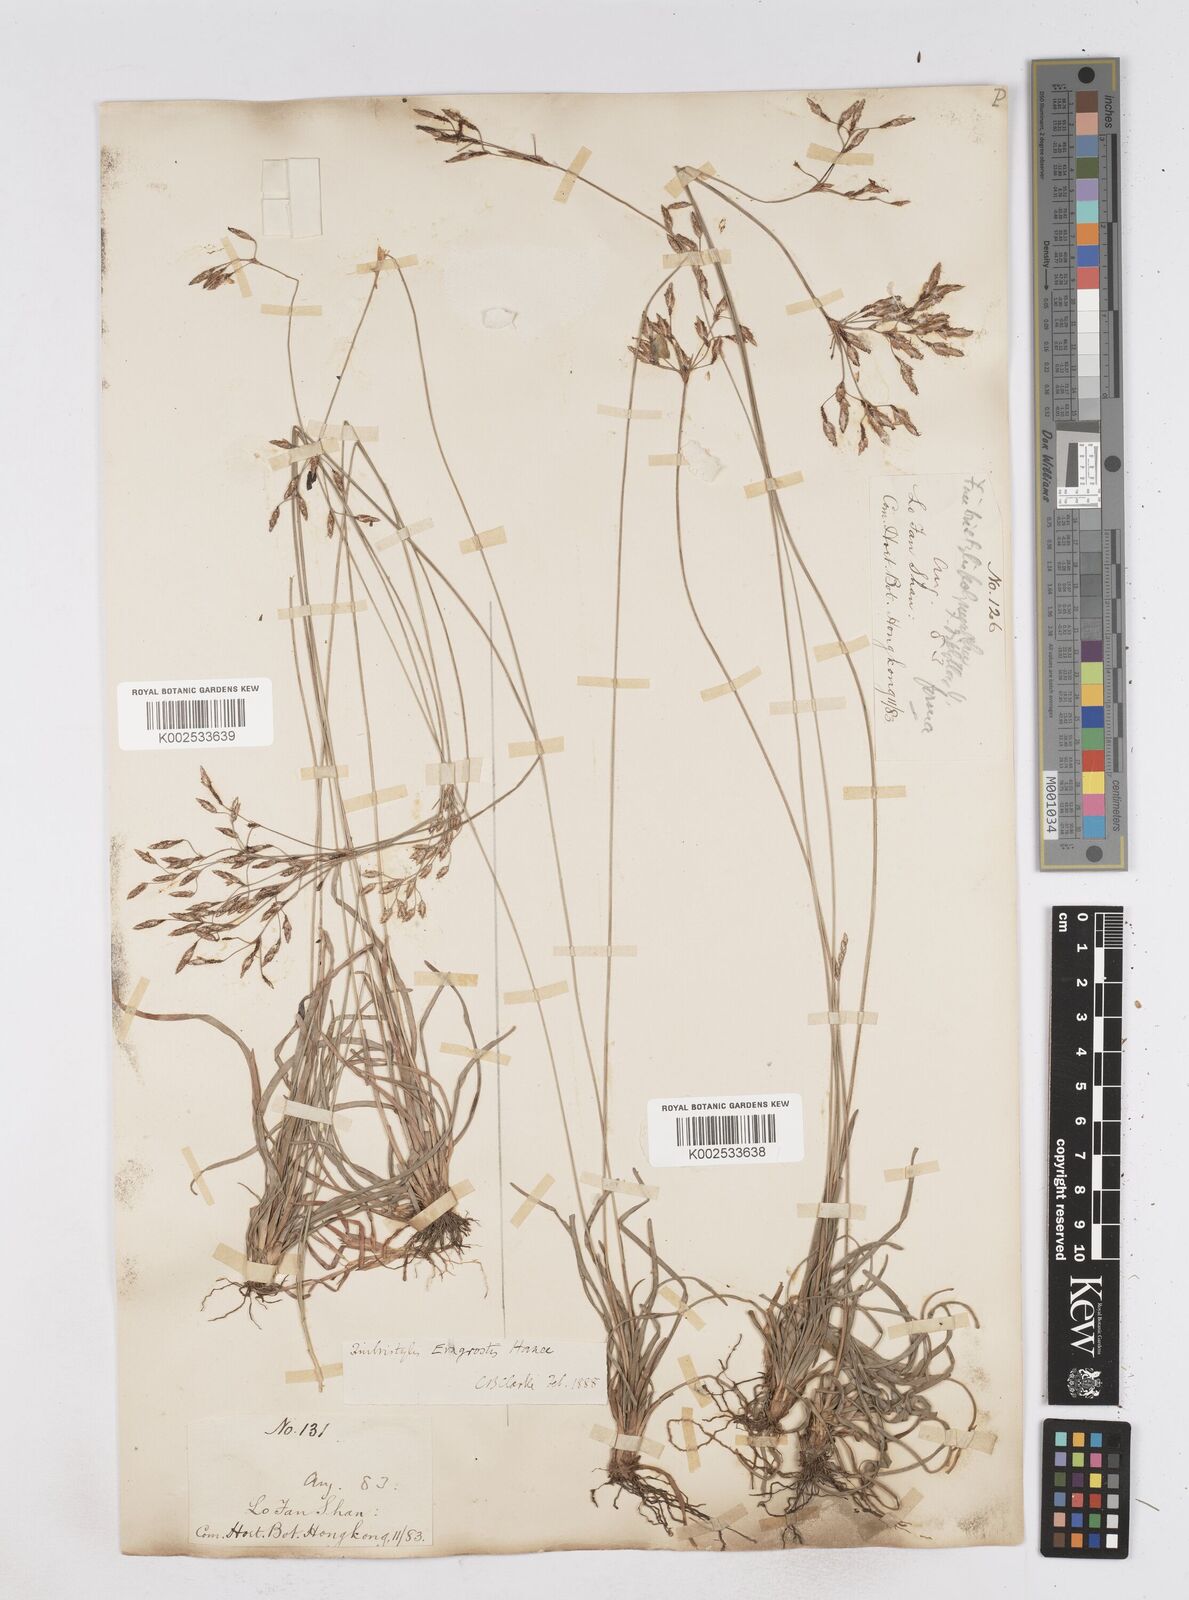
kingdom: Plantae
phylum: Tracheophyta
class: Liliopsida
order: Poales
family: Cyperaceae
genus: Fimbristylis
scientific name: Fimbristylis eragrostis
